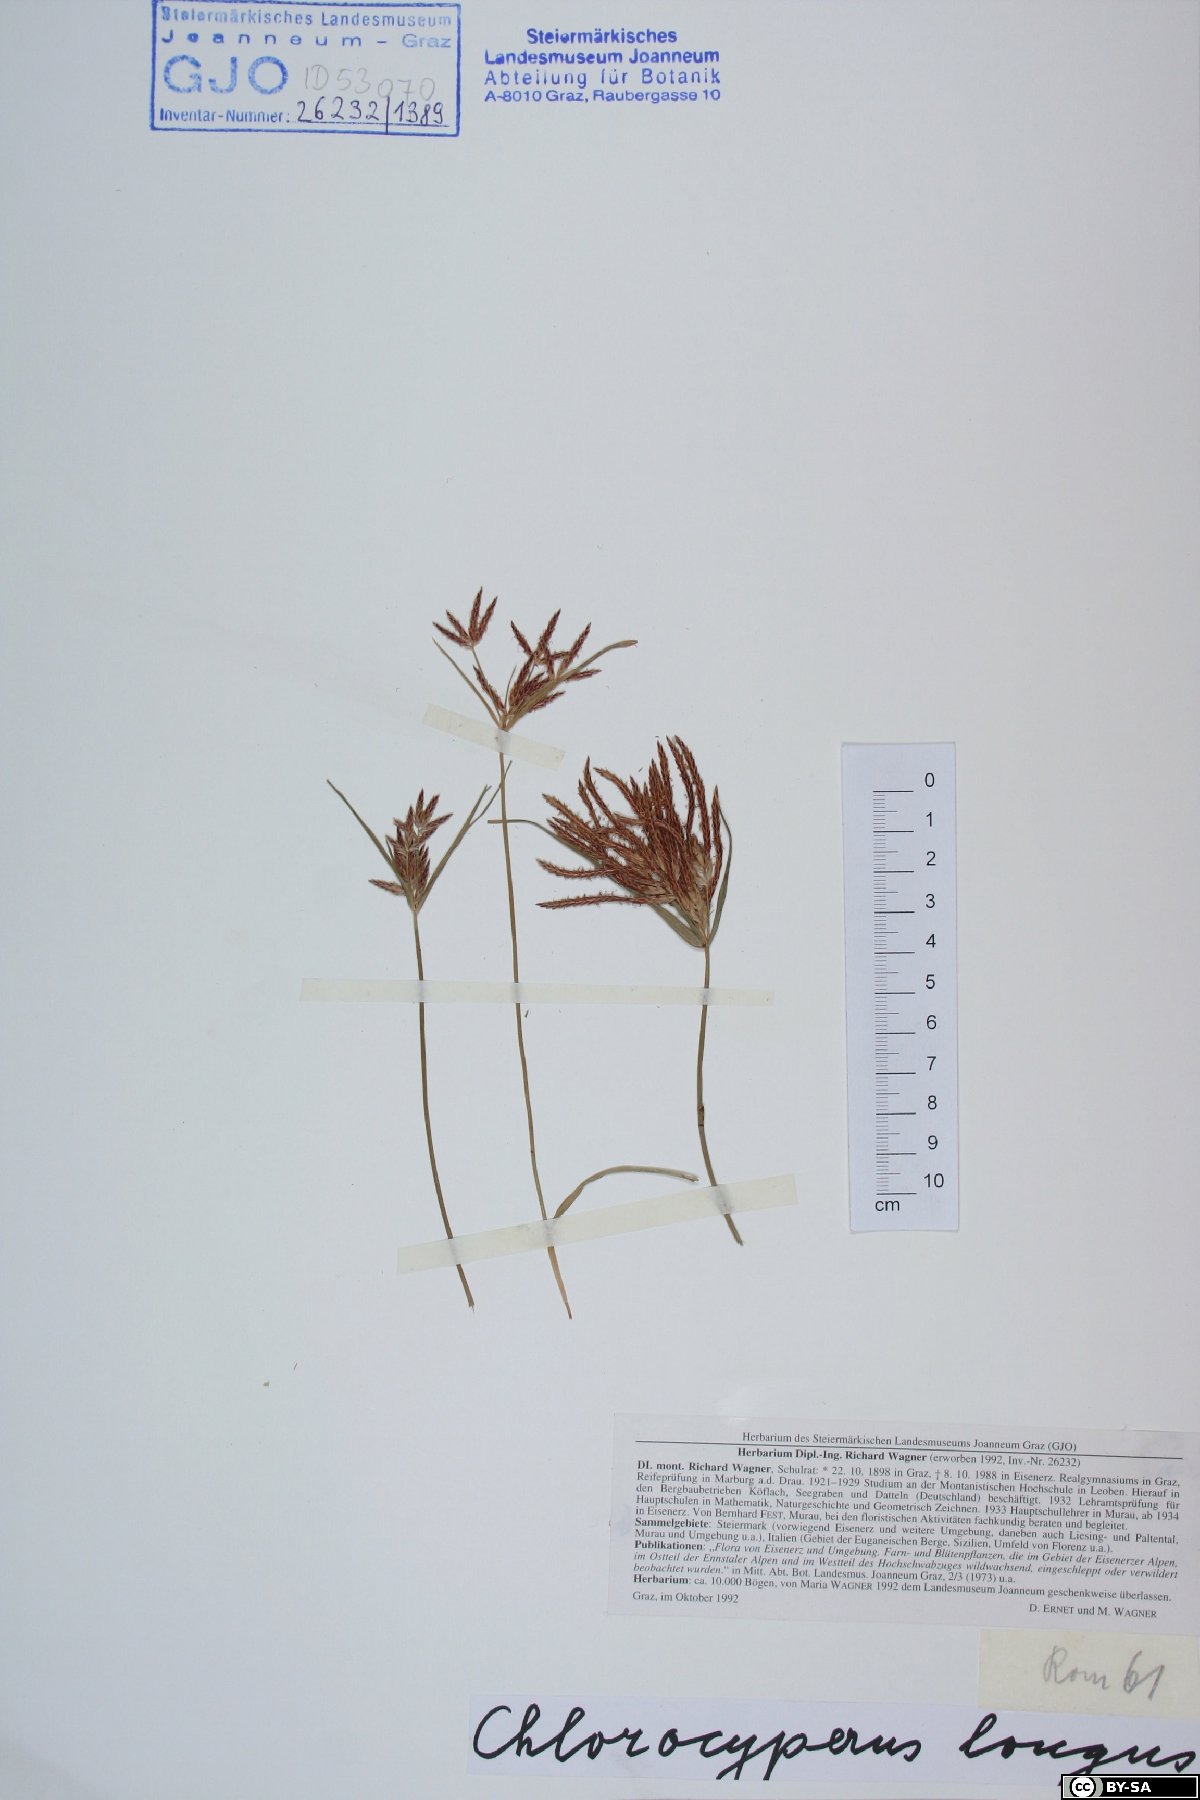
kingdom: Plantae
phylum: Tracheophyta
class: Liliopsida
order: Poales
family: Cyperaceae
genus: Cyperus
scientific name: Cyperus longus
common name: Galingale
